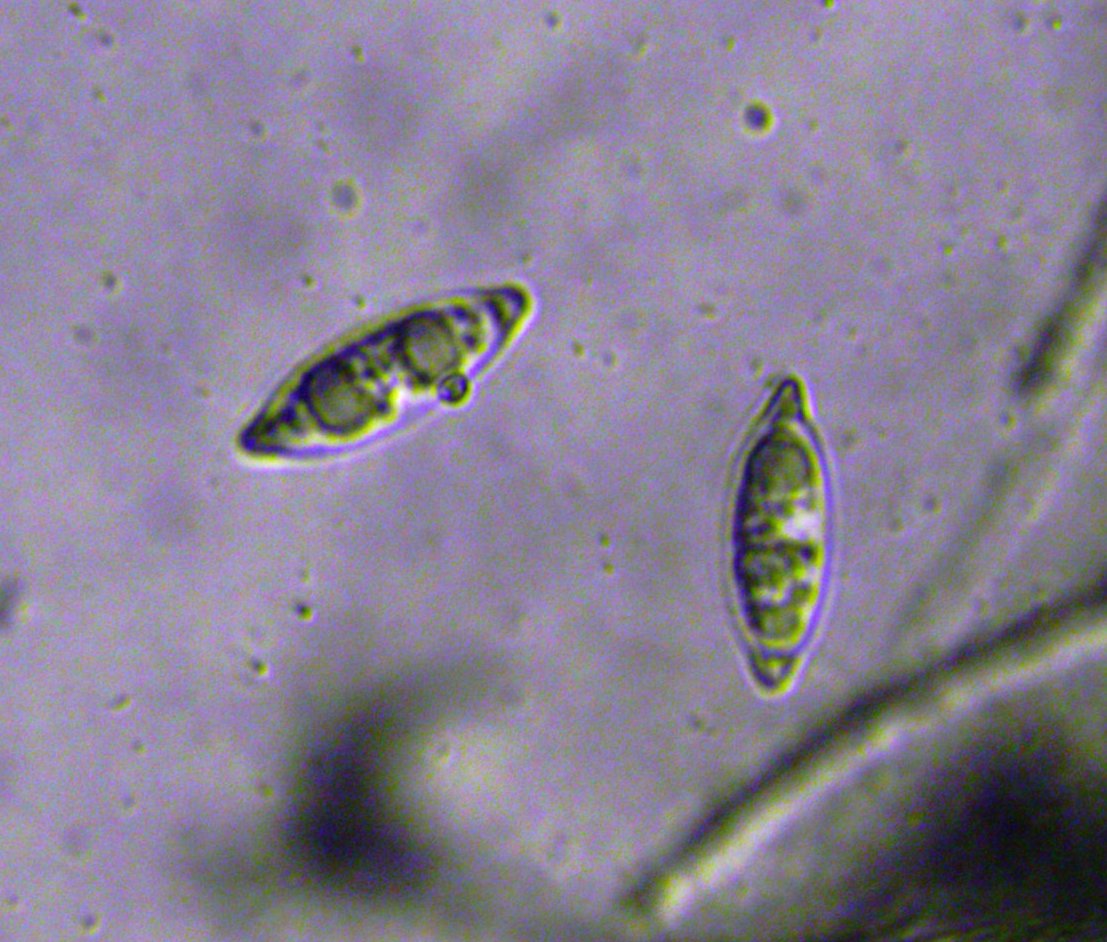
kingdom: Fungi
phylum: Ascomycota
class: Pezizomycetes
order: Pezizales
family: Rhizinaceae
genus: Rhizina
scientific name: Rhizina undulata
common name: rodmorkel
